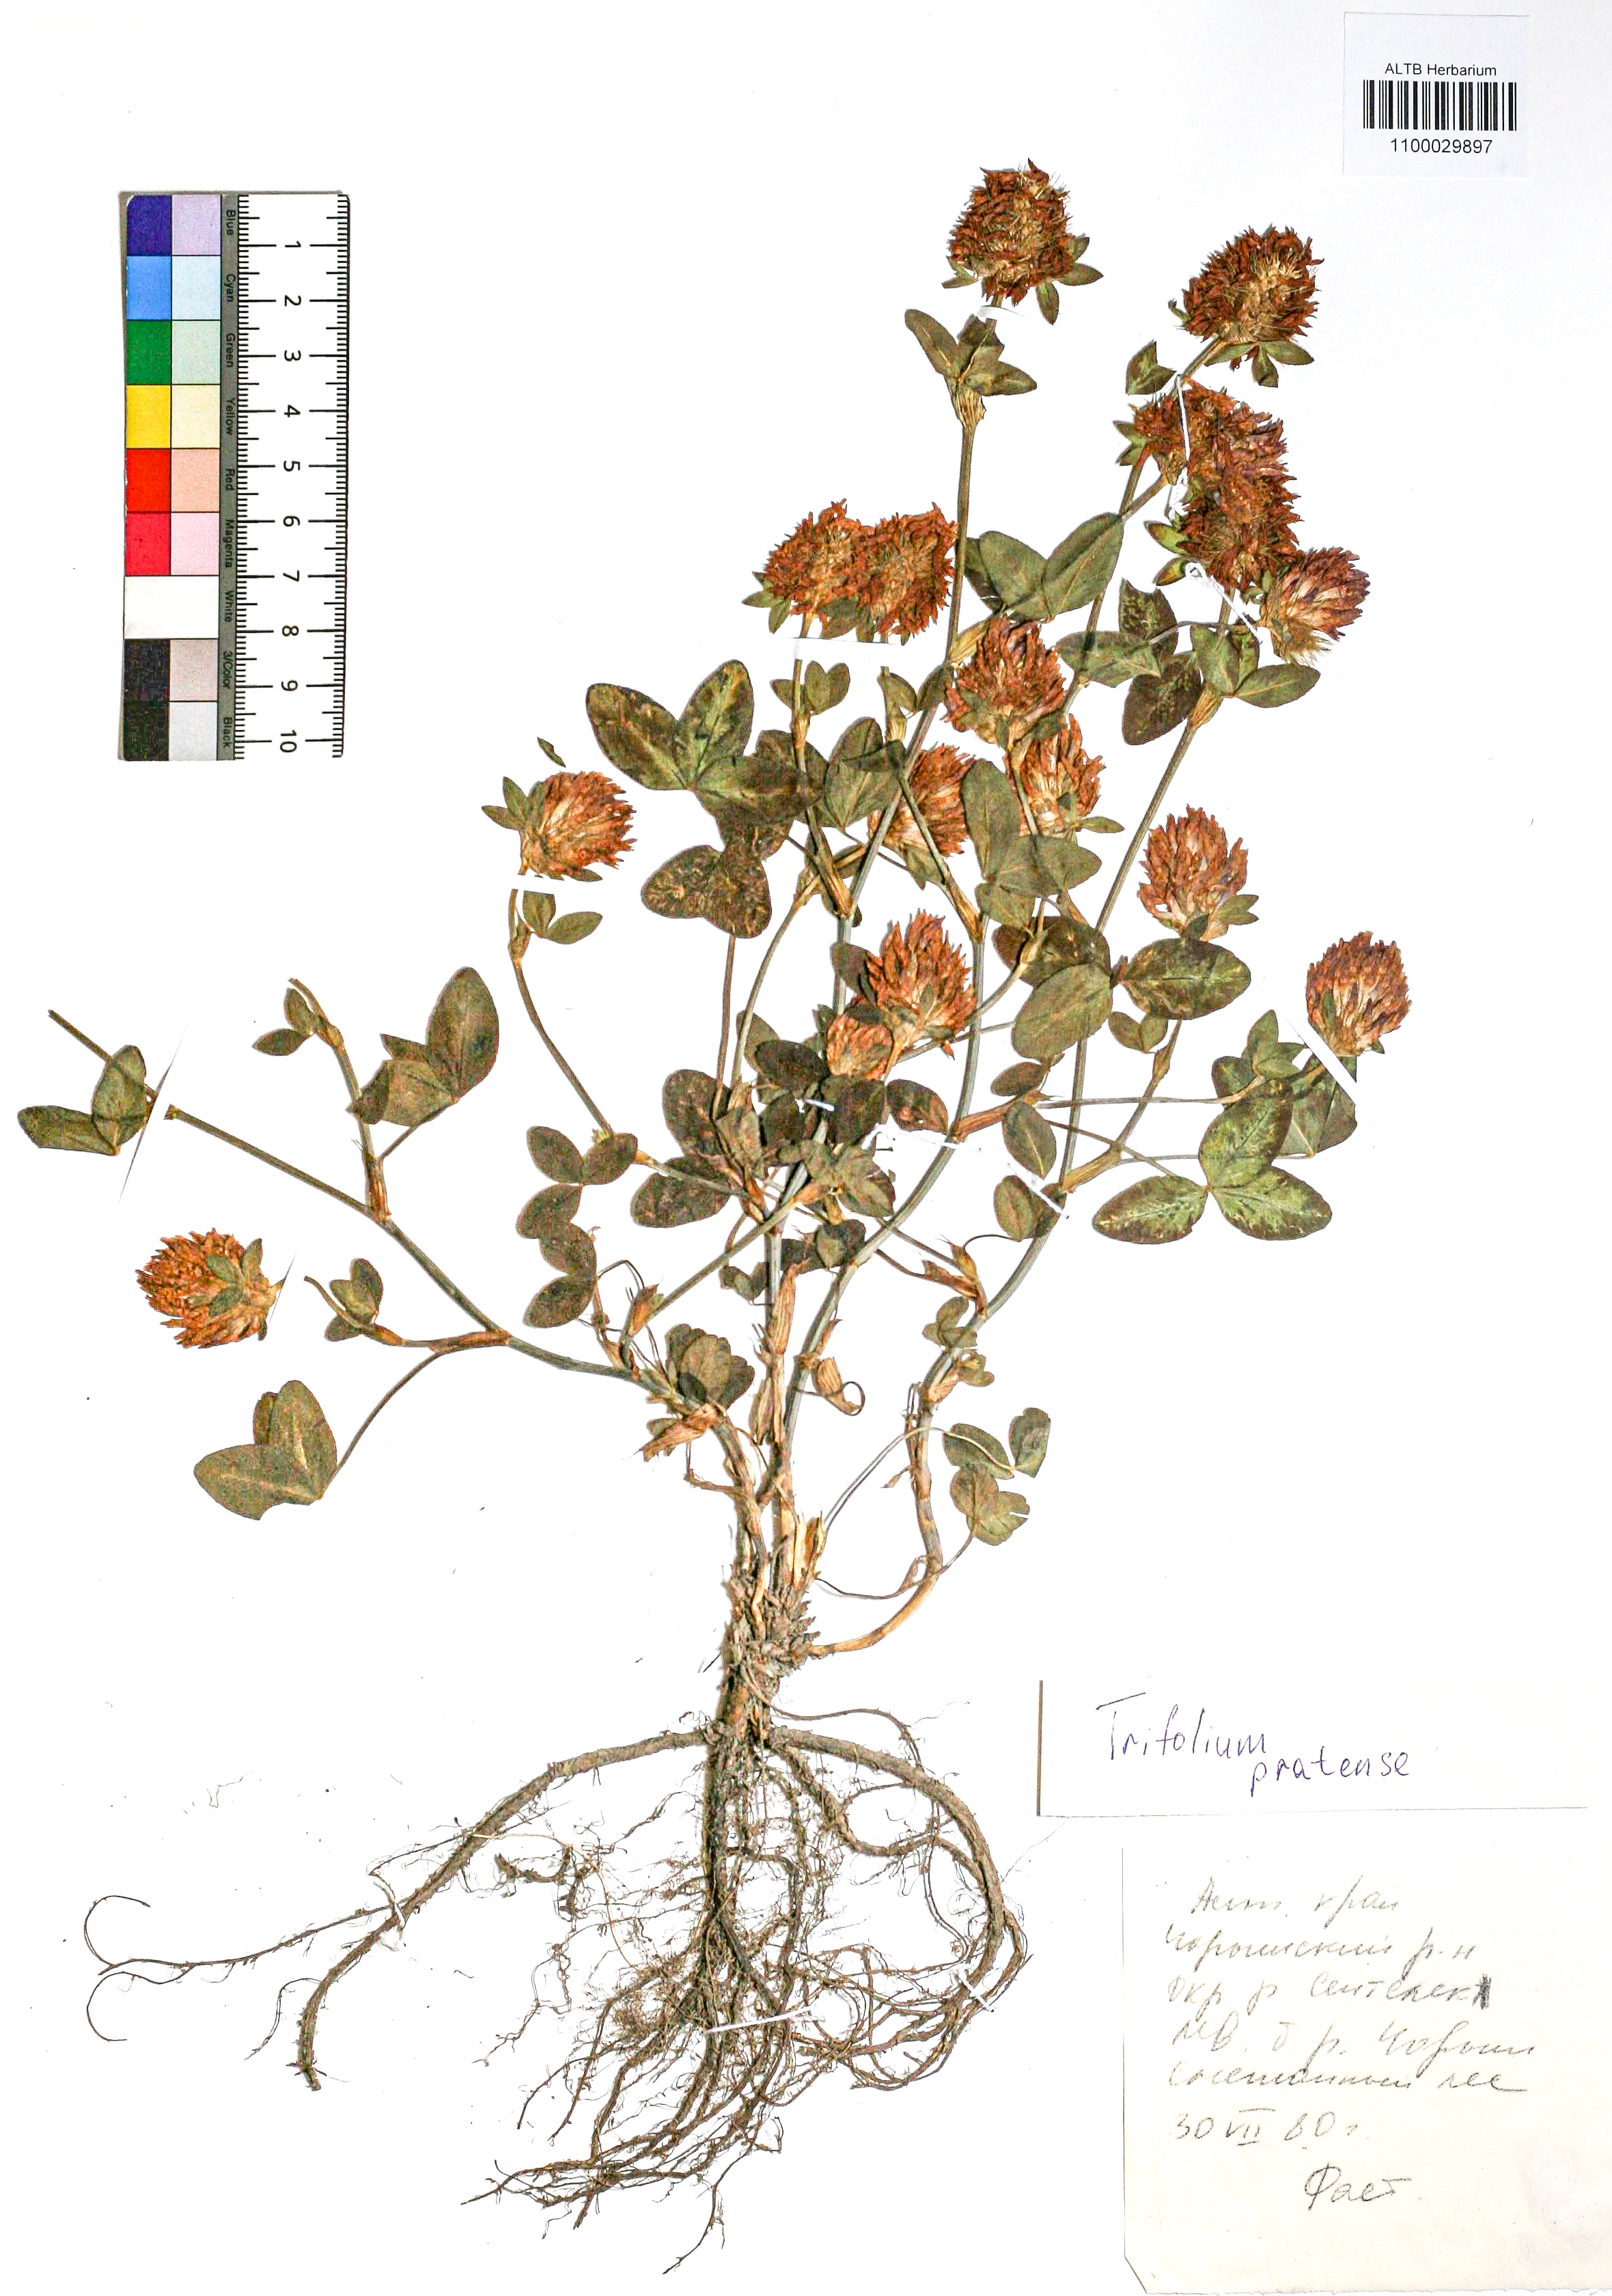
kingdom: Plantae
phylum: Tracheophyta
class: Magnoliopsida
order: Fabales
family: Fabaceae
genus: Trifolium
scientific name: Trifolium pratense
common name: Red clover
